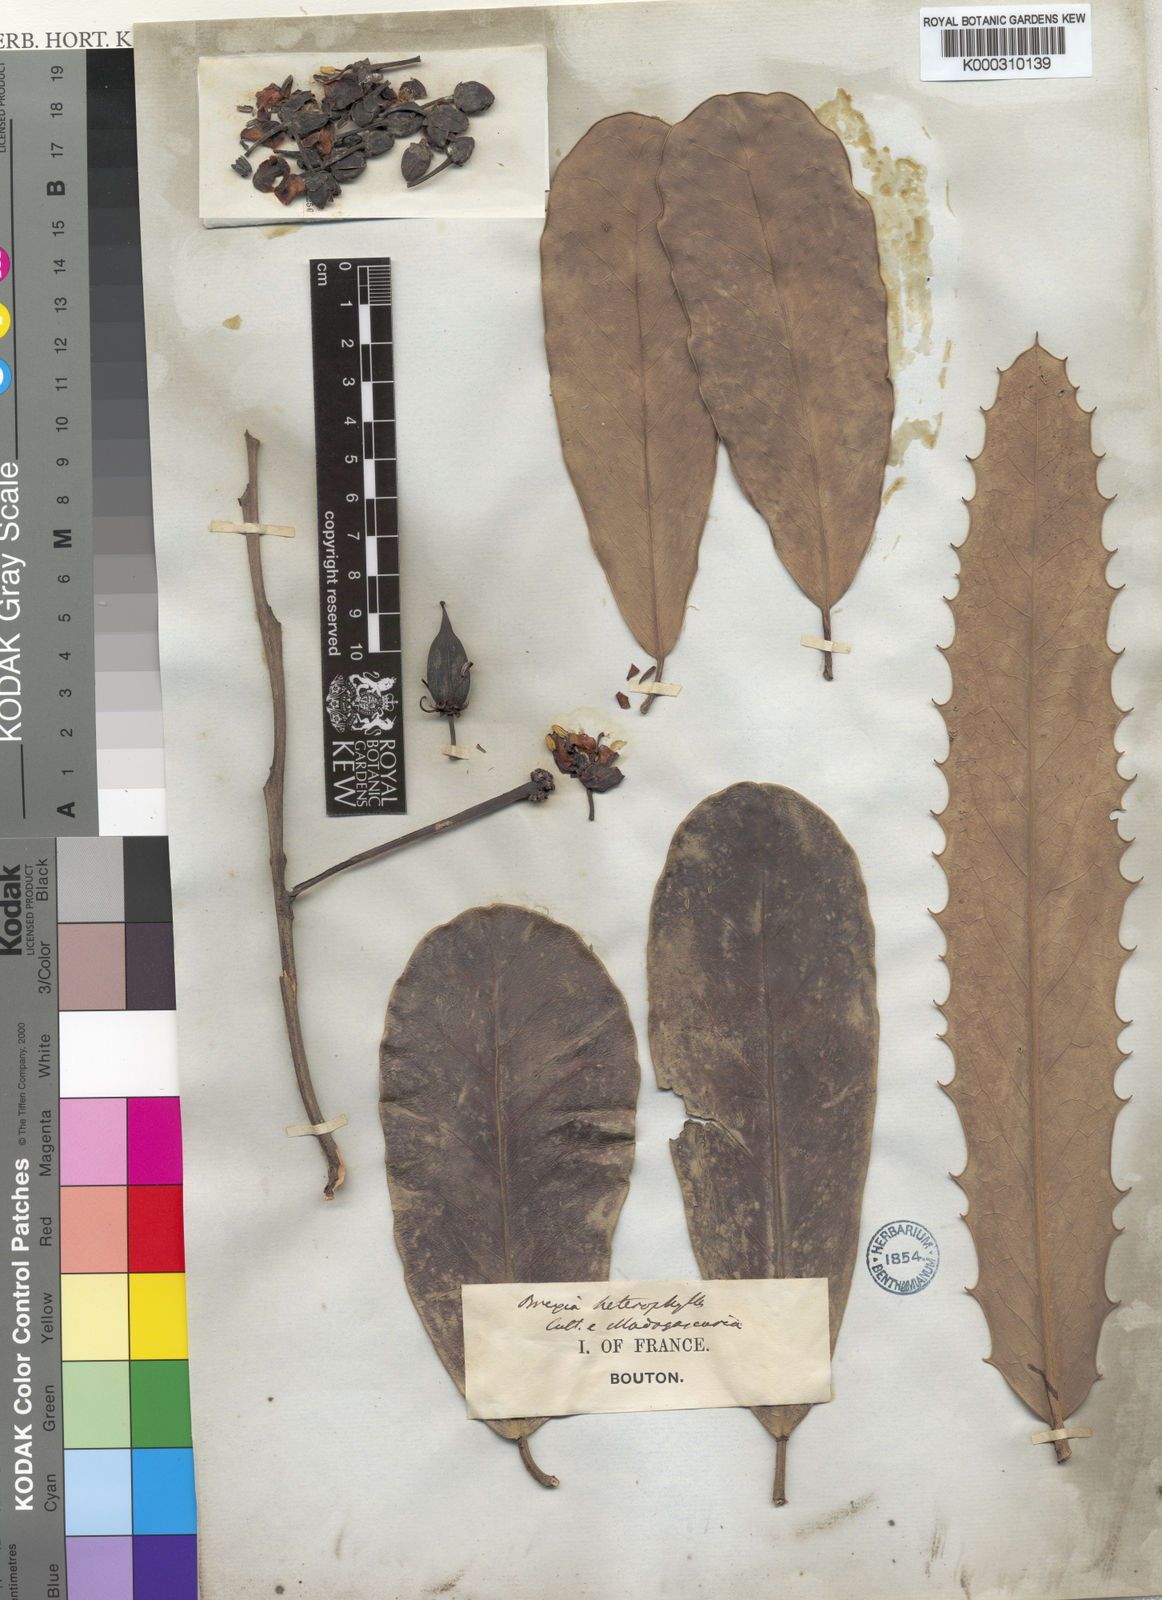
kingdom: Plantae
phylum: Tracheophyta
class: Magnoliopsida
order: Celastrales
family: Celastraceae
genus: Brexia
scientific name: Brexia
